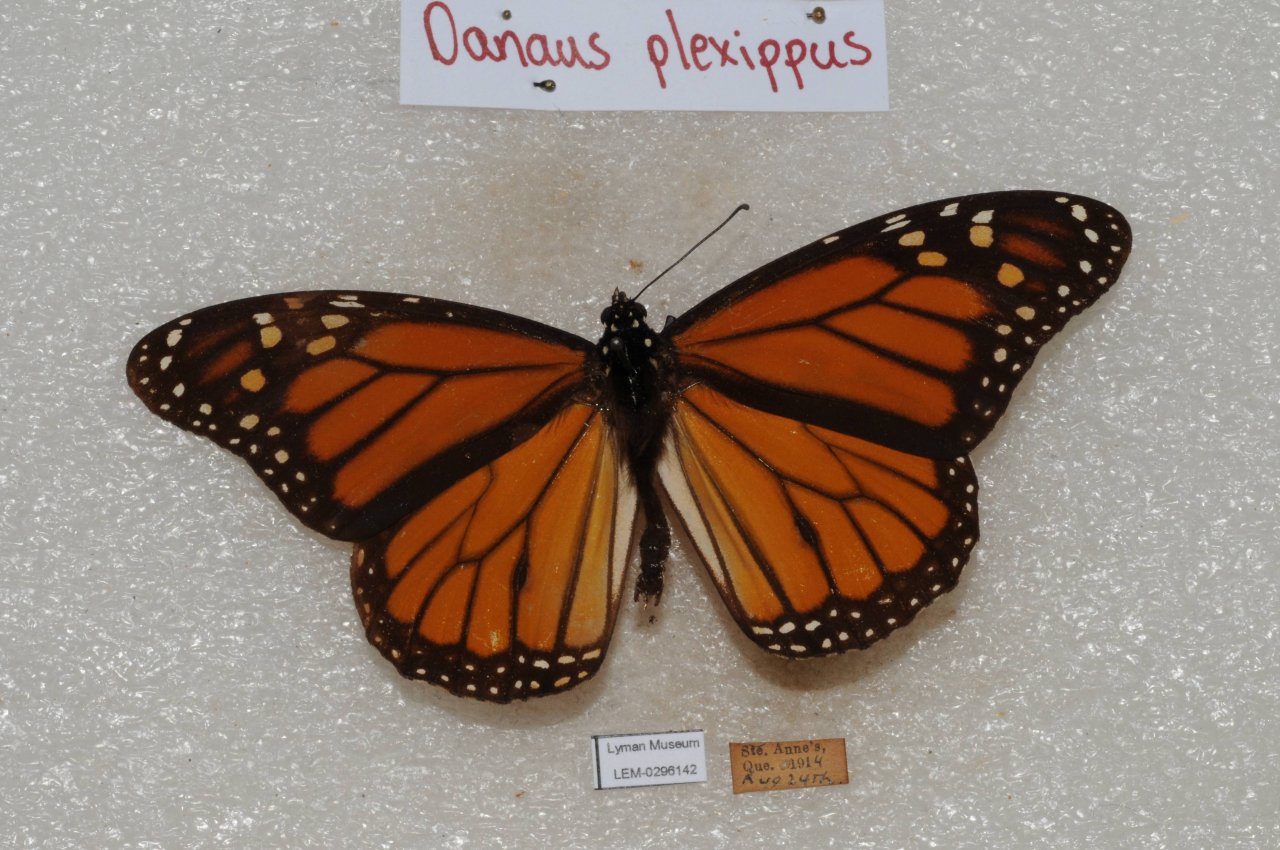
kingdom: Animalia
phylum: Arthropoda
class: Insecta
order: Lepidoptera
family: Nymphalidae
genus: Danaus
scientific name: Danaus plexippus
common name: Monarch
